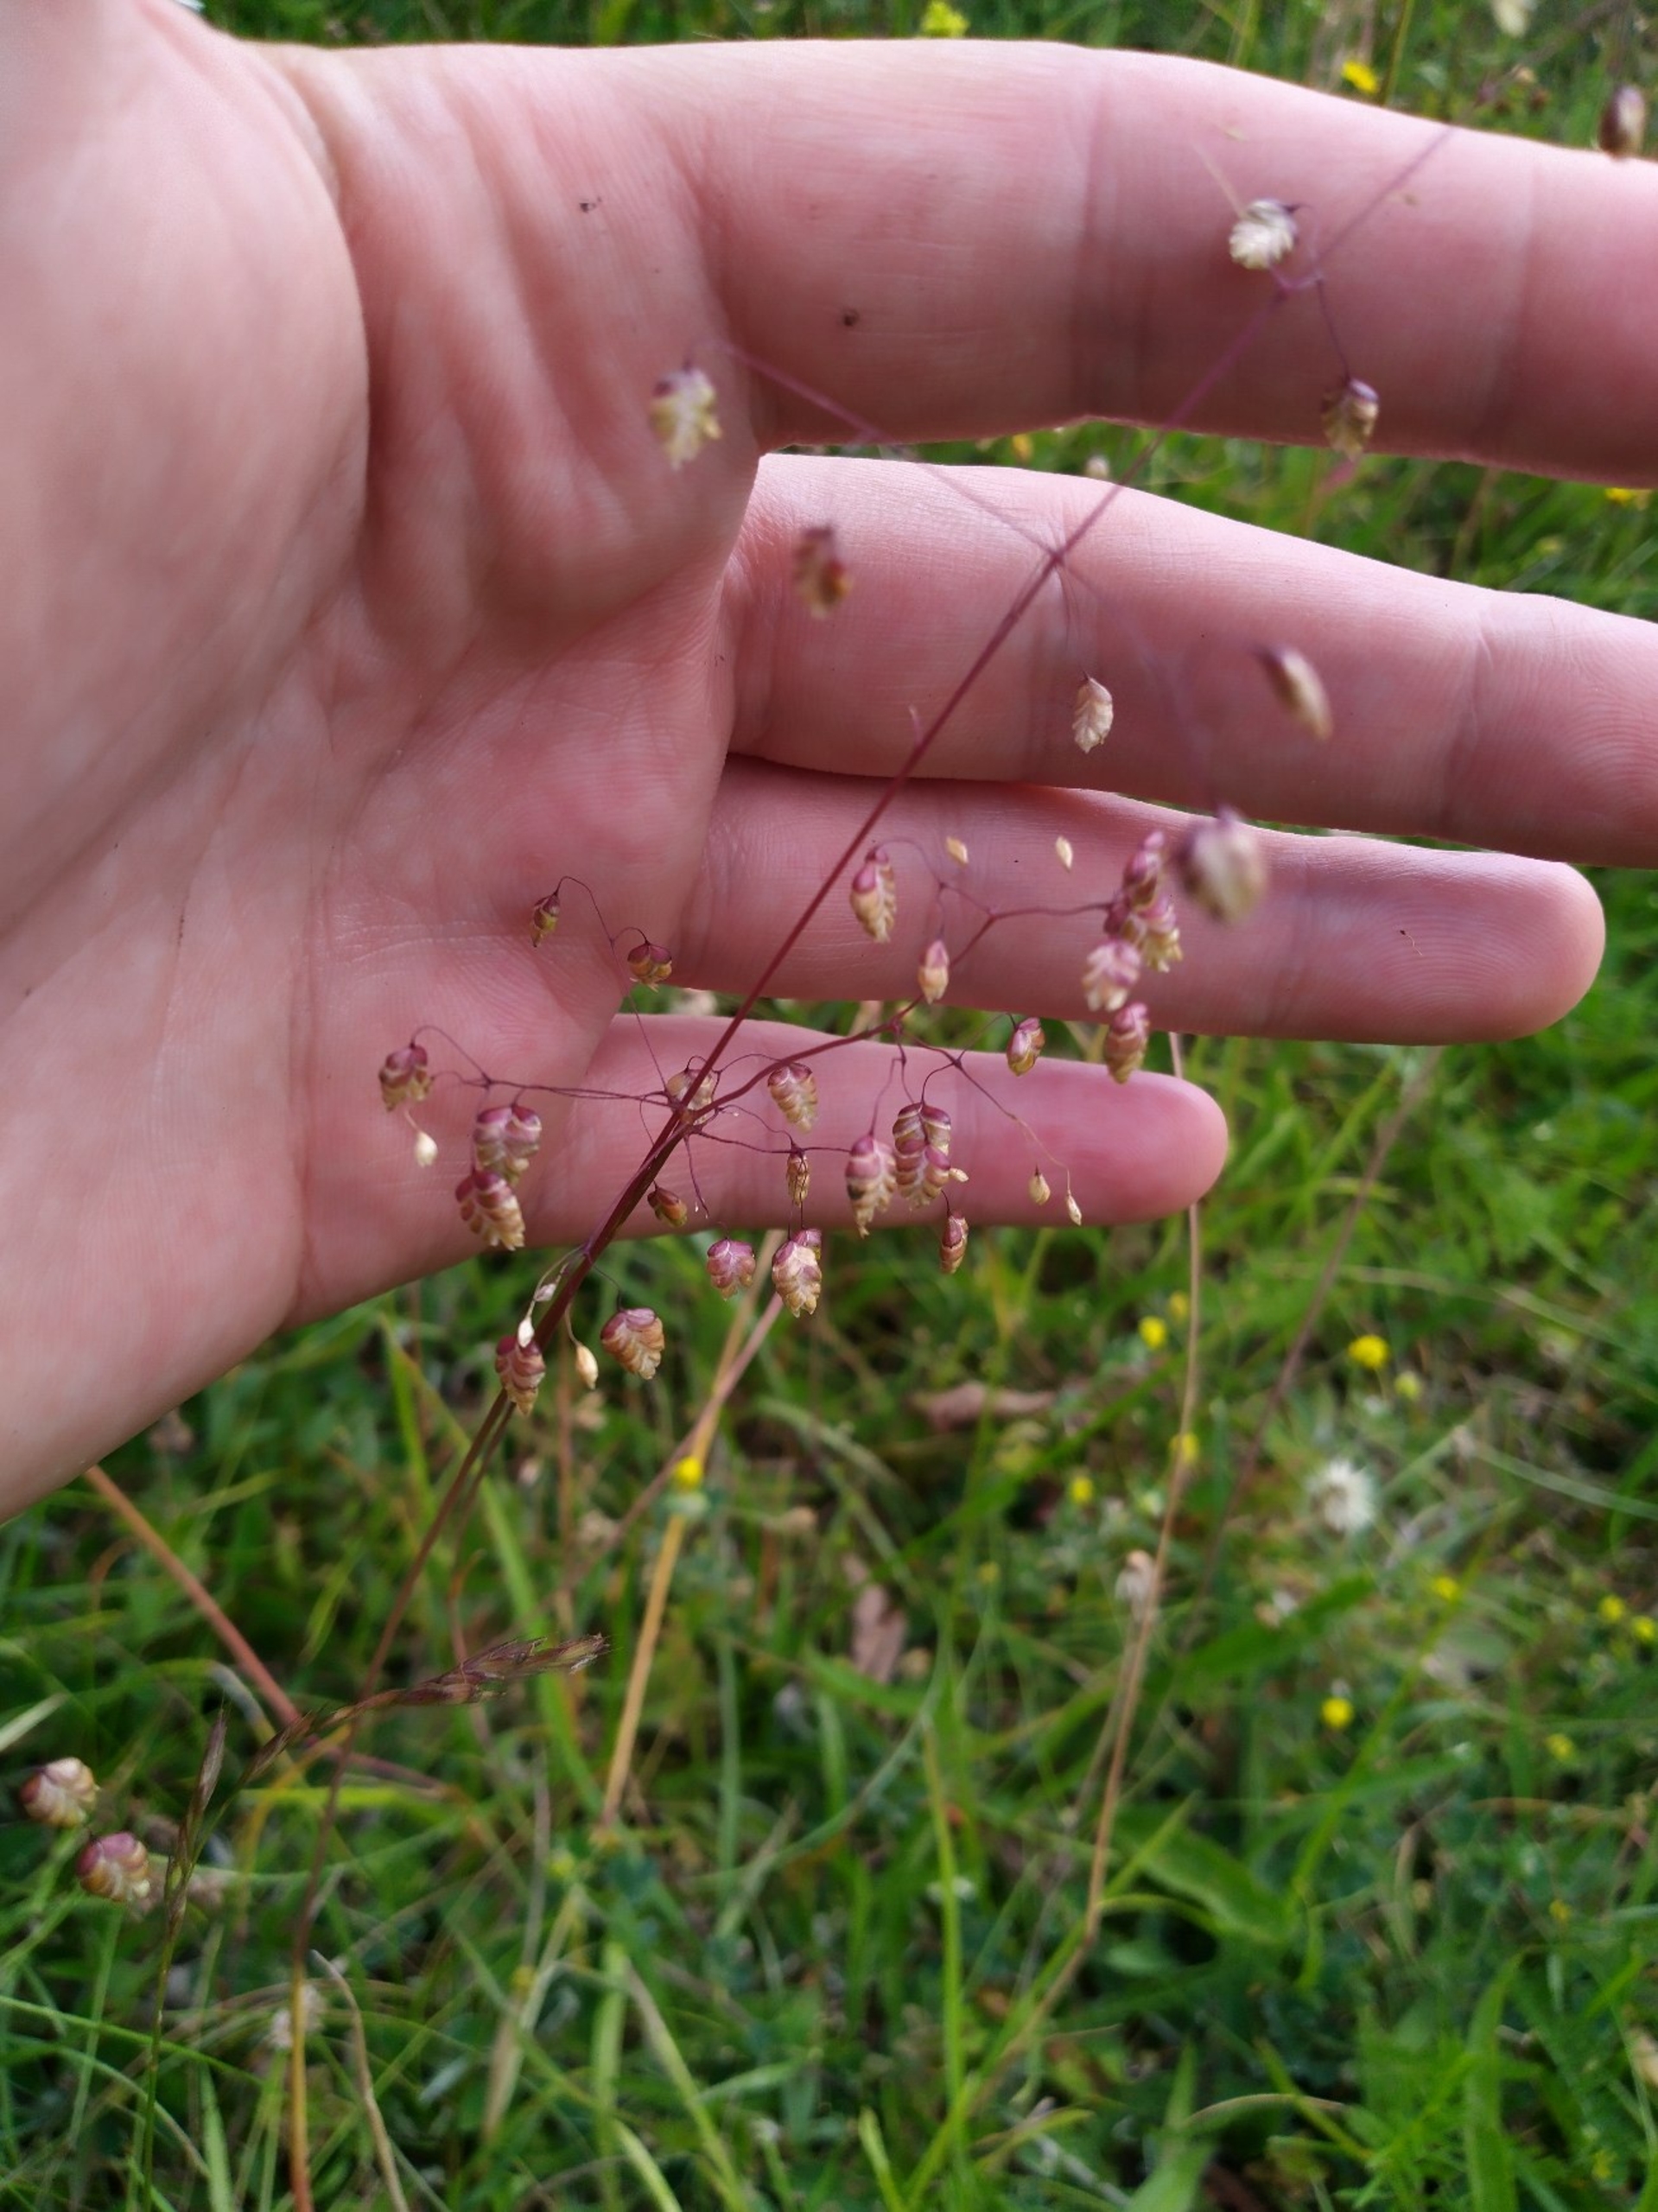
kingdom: Plantae
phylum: Tracheophyta
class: Liliopsida
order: Poales
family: Poaceae
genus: Briza
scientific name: Briza media
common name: Hjertegræs
